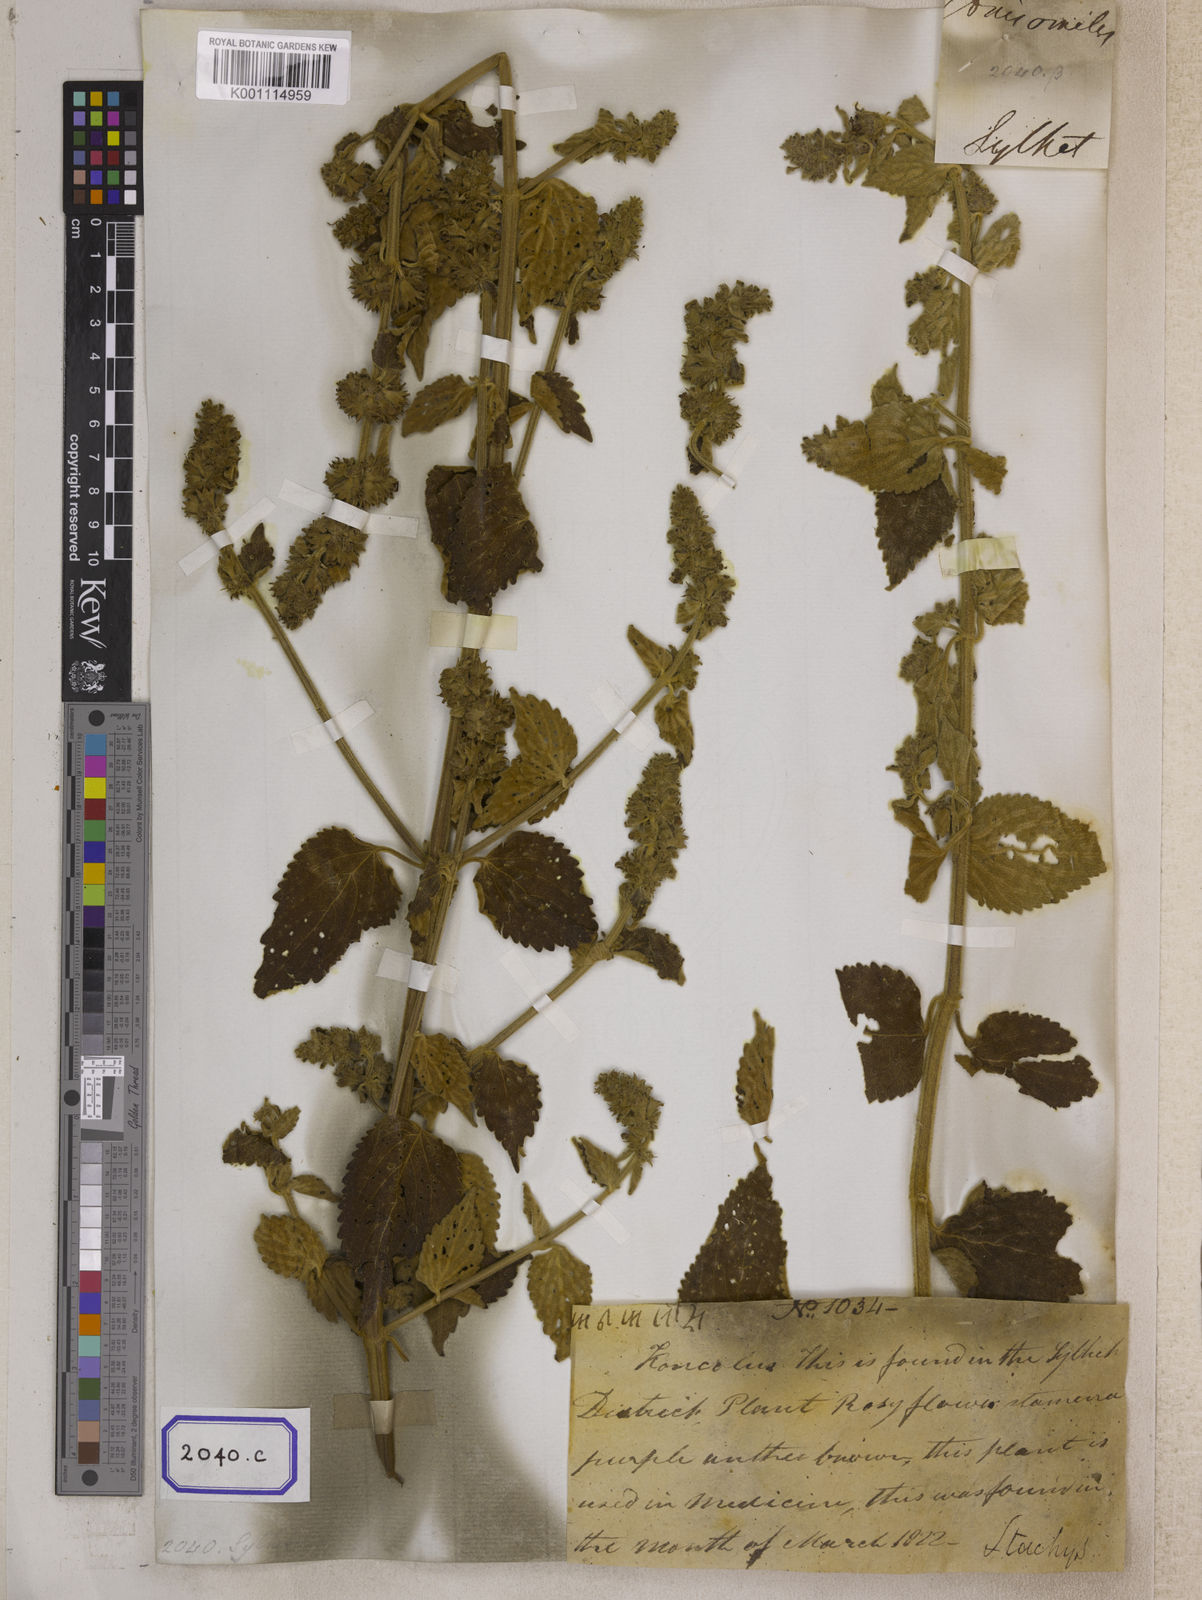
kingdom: Plantae
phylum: Tracheophyta
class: Magnoliopsida
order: Lamiales
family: Lamiaceae
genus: Anisomeles
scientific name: Anisomeles
